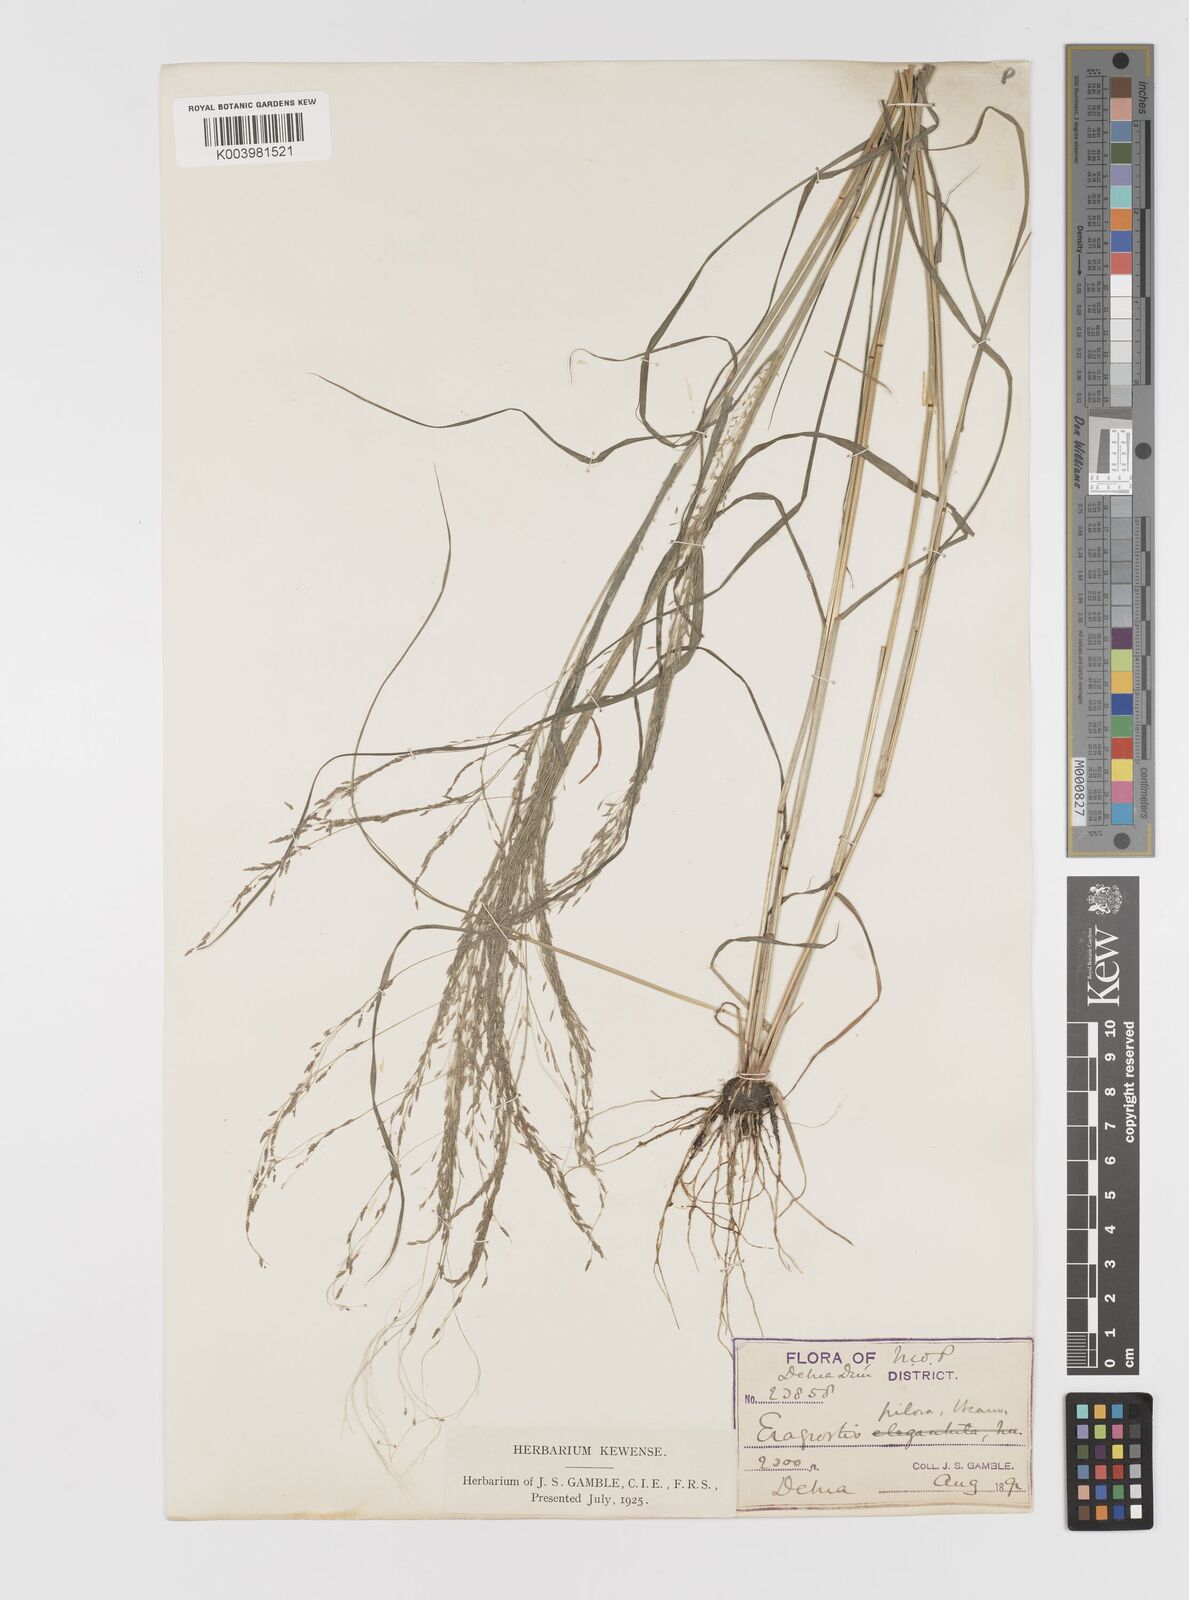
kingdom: Plantae
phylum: Tracheophyta
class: Liliopsida
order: Poales
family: Poaceae
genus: Eragrostis
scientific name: Eragrostis pilosa
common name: Indian lovegrass
